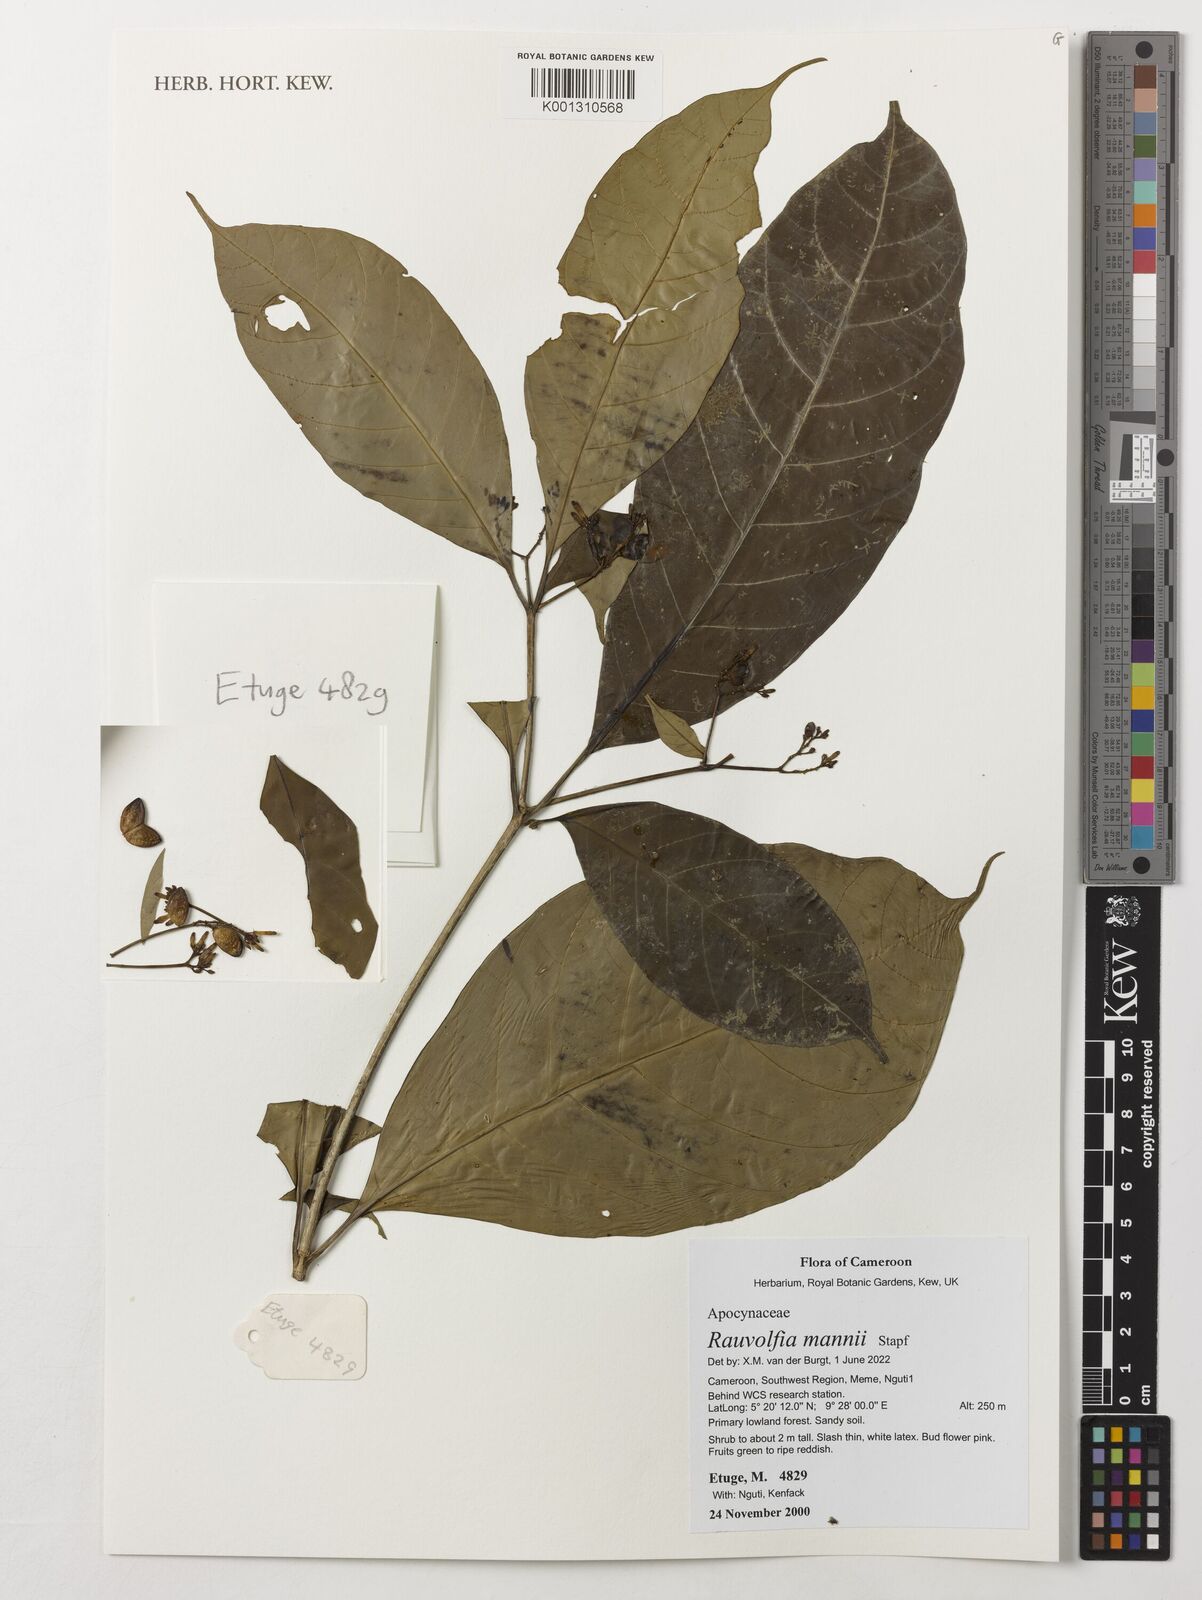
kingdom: Plantae
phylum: Tracheophyta
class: Magnoliopsida
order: Gentianales
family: Apocynaceae
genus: Rauvolfia
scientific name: Rauvolfia mannii
